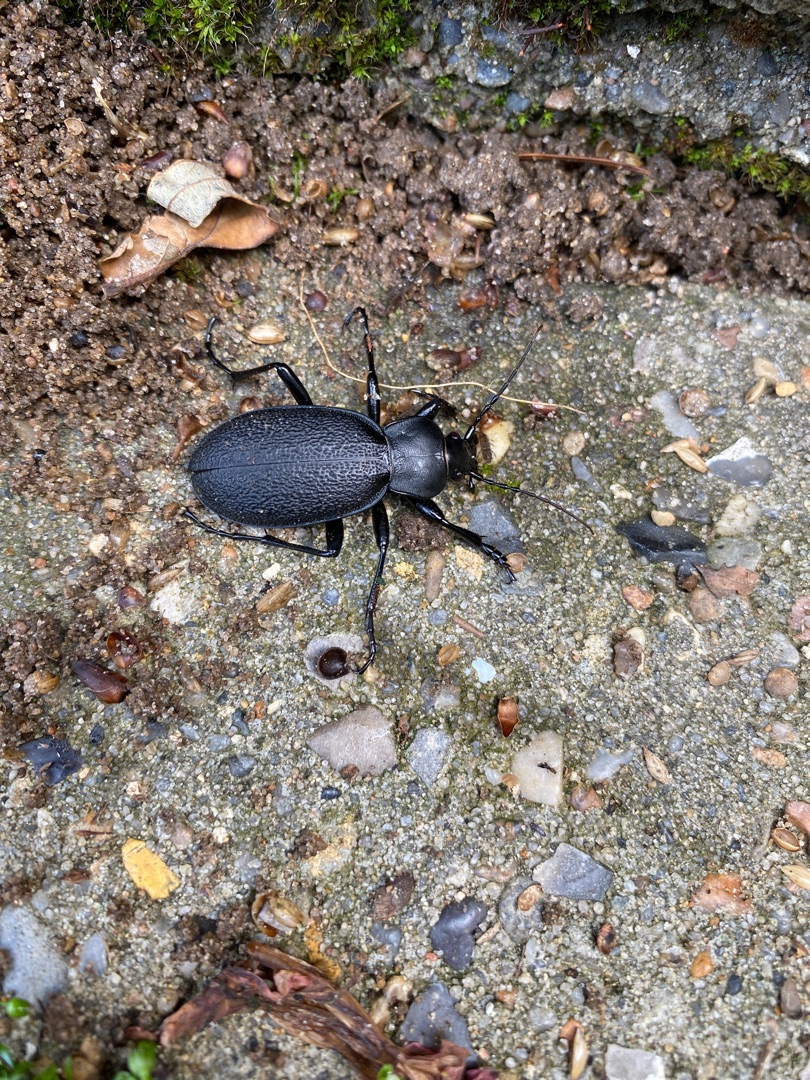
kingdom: Animalia
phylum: Arthropoda
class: Insecta
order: Coleoptera
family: Carabidae
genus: Carabus
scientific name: Carabus coriaceus
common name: Læderløber
